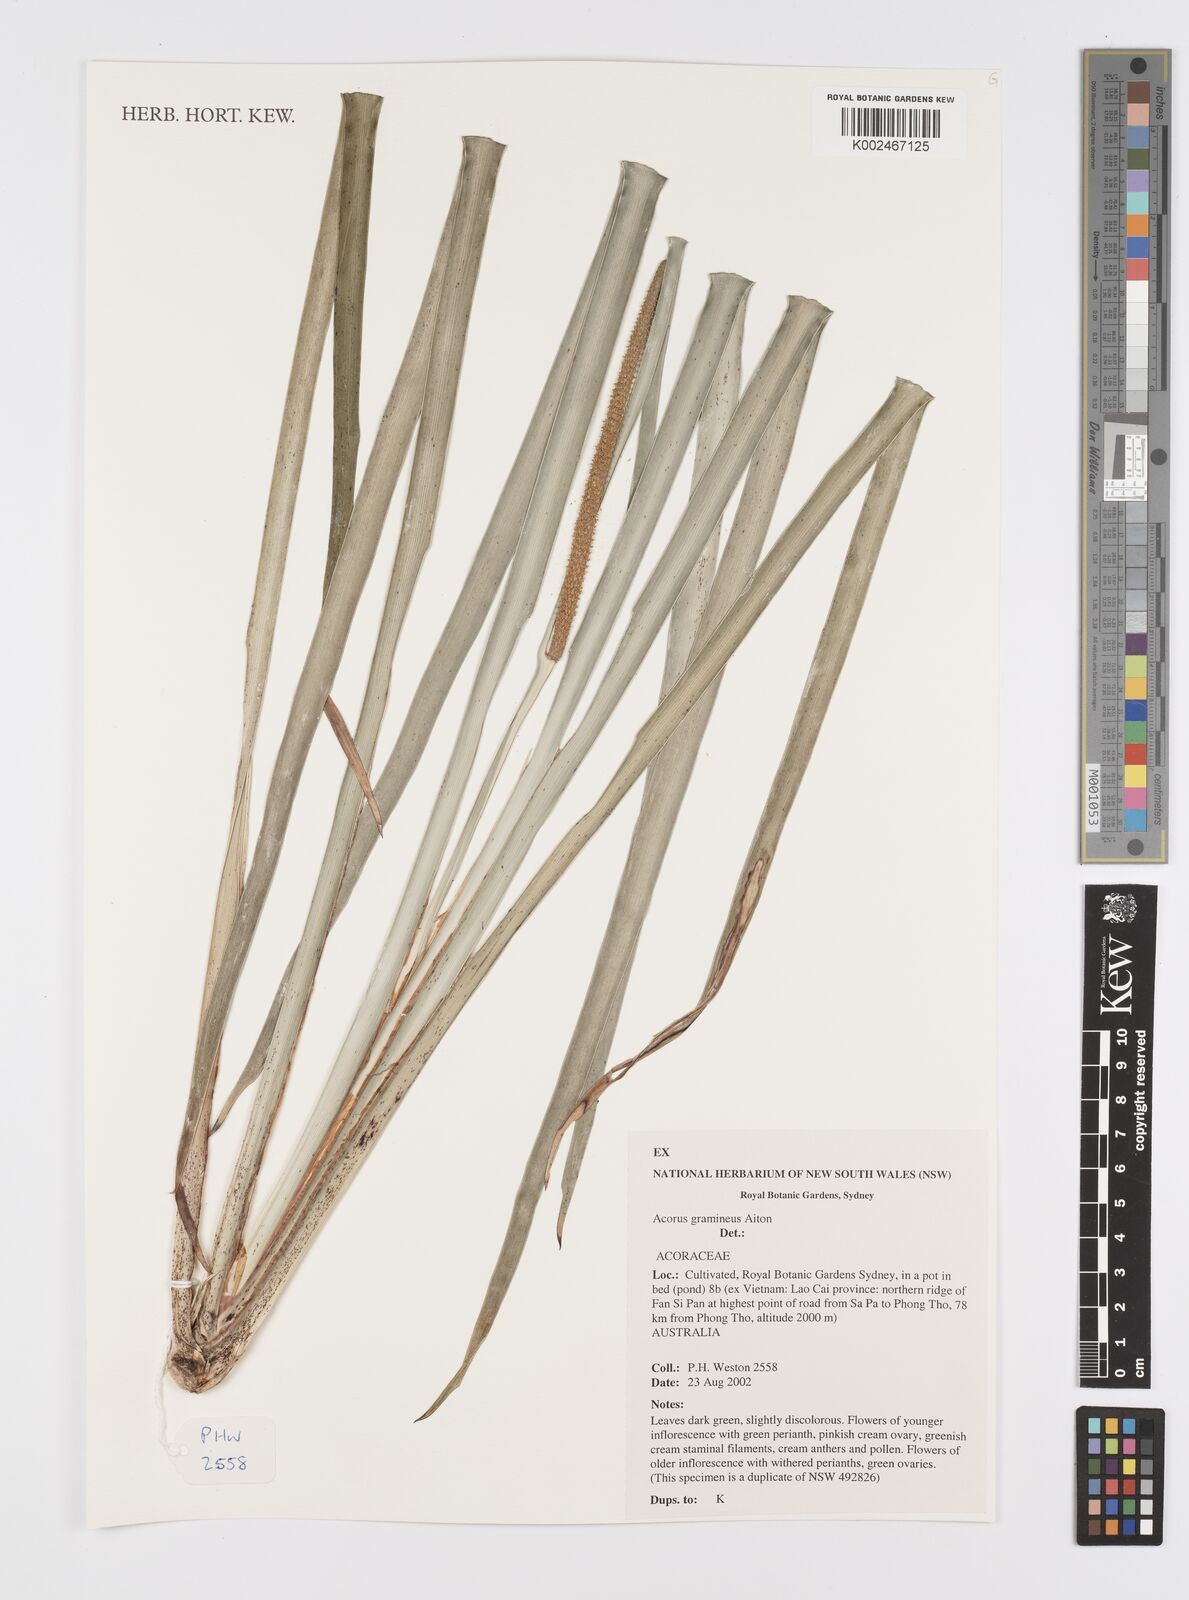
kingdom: Plantae
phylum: Tracheophyta
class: Liliopsida
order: Acorales
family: Acoraceae
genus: Acorus
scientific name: Acorus gramineus
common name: Slender sweet-flag
